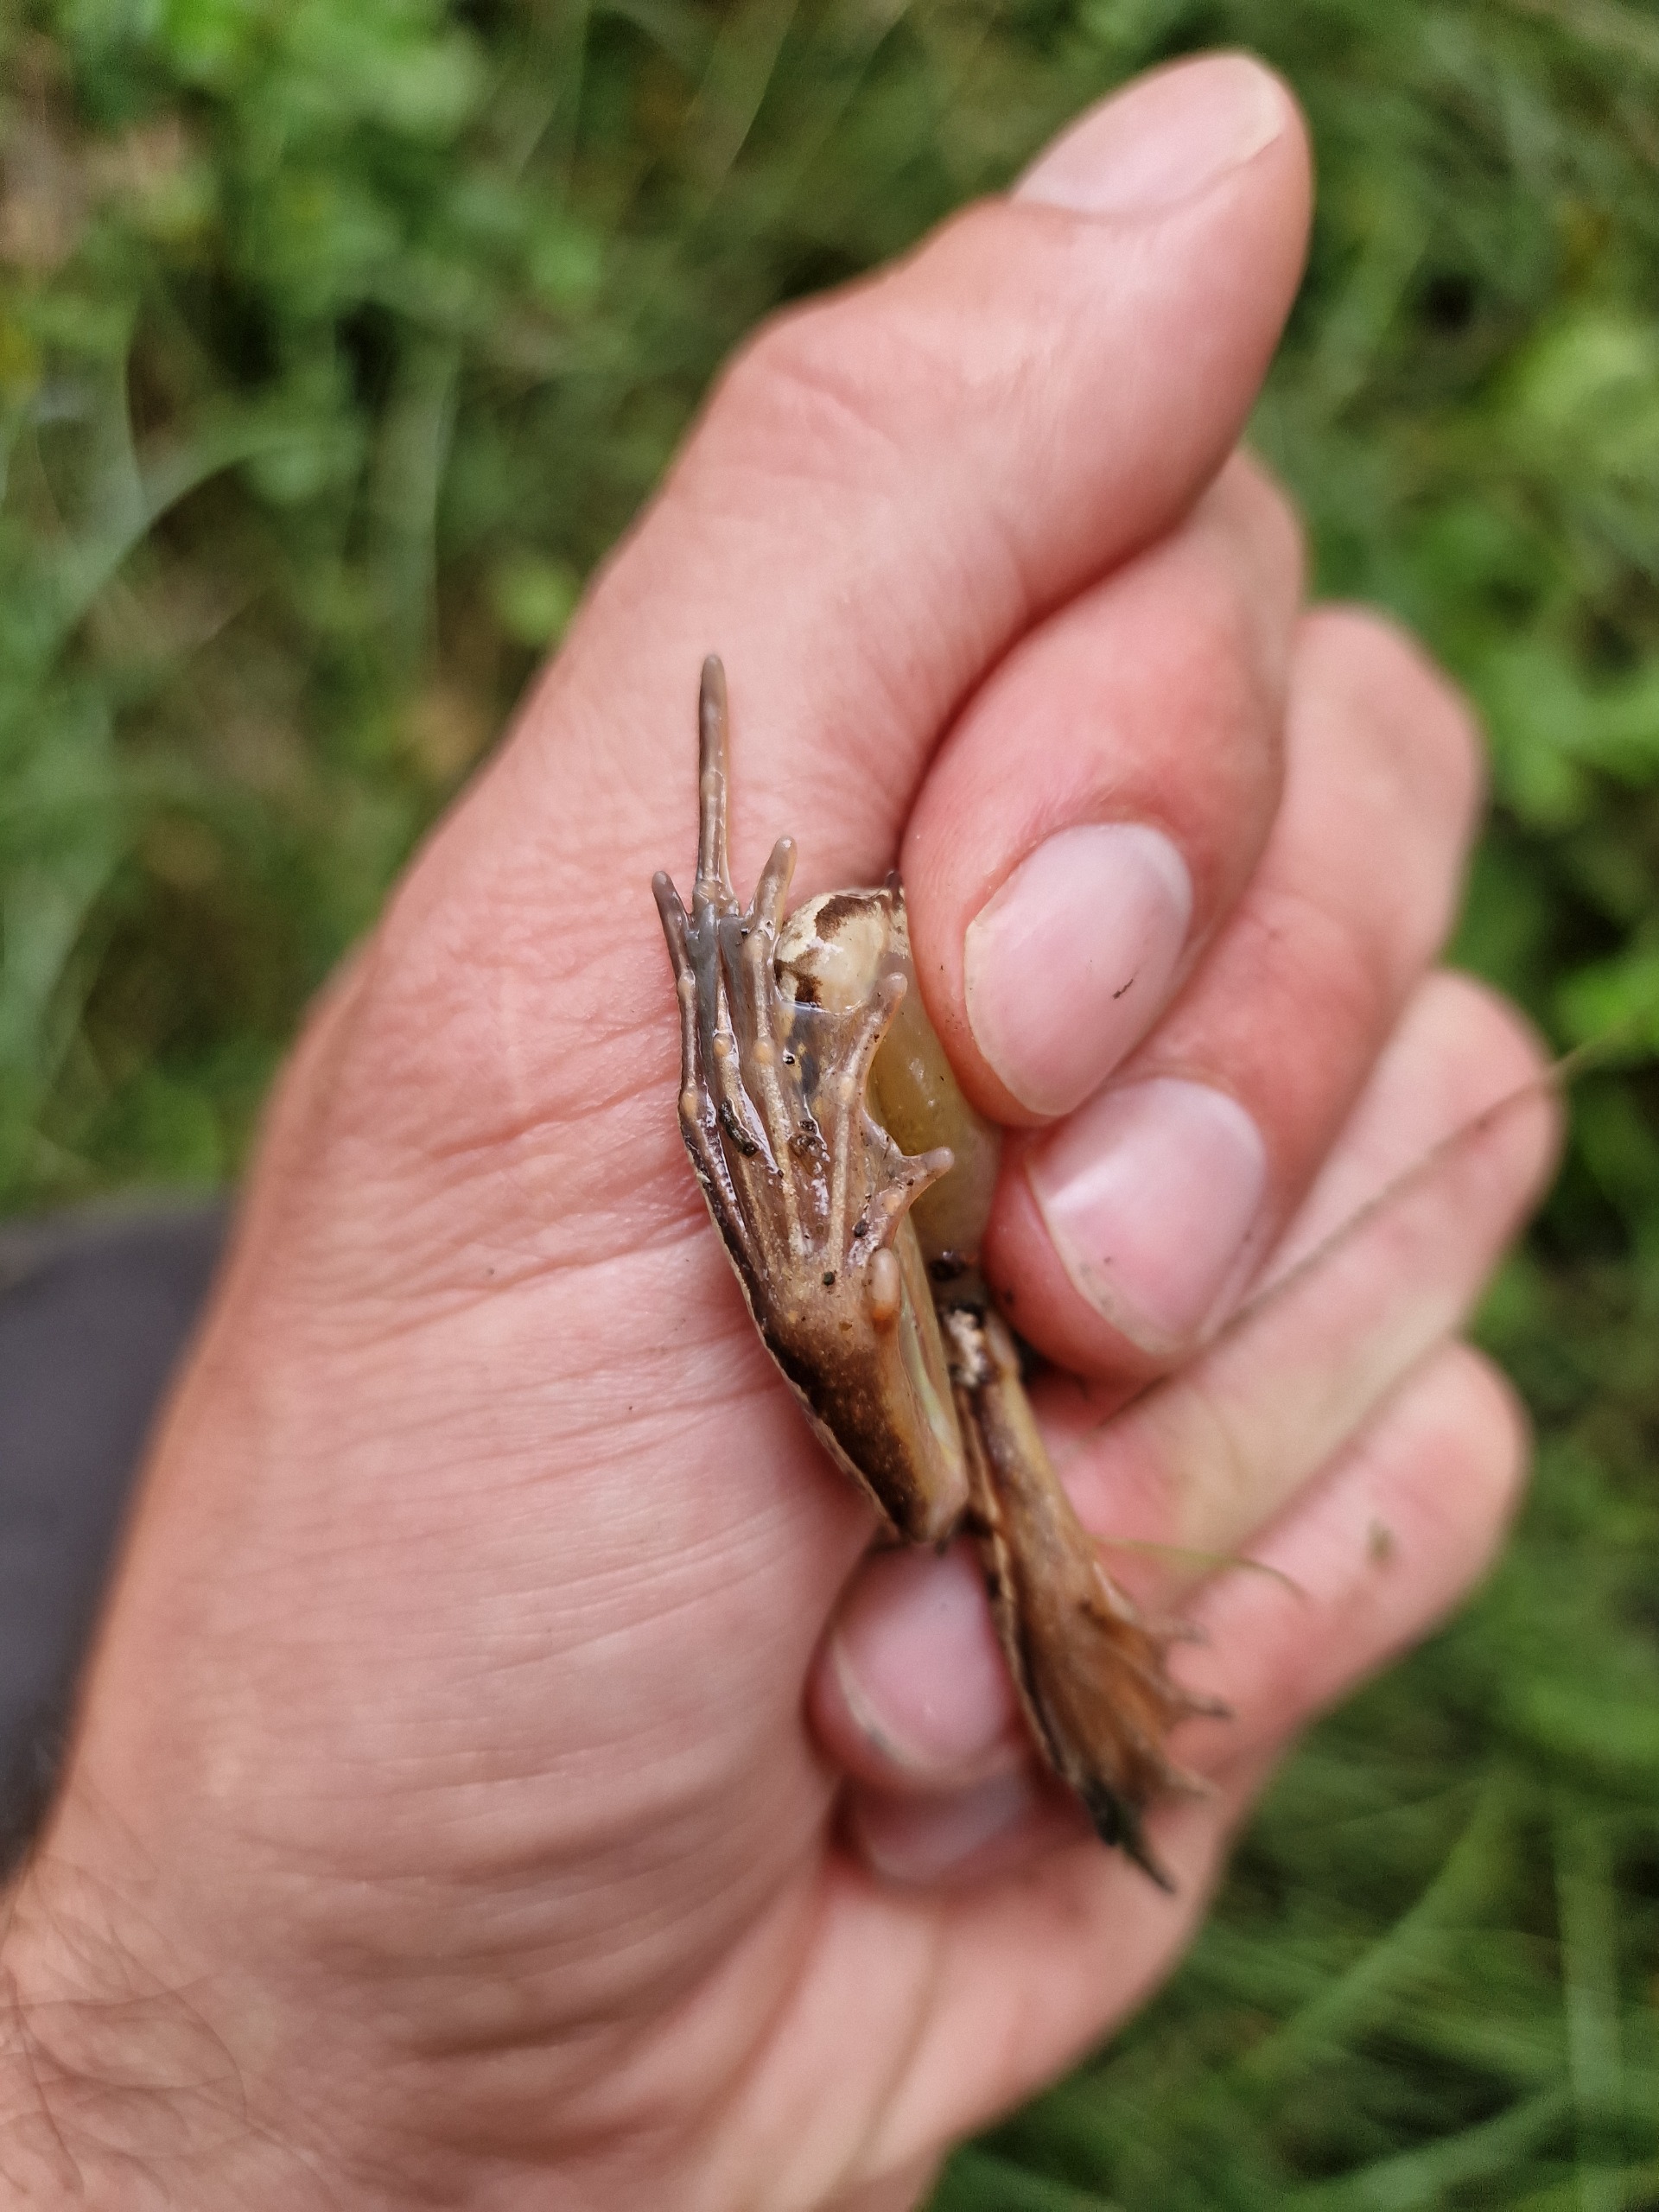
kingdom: Animalia
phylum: Chordata
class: Amphibia
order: Anura
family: Ranidae
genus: Rana
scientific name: Rana arvalis
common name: Spidssnudet frø
